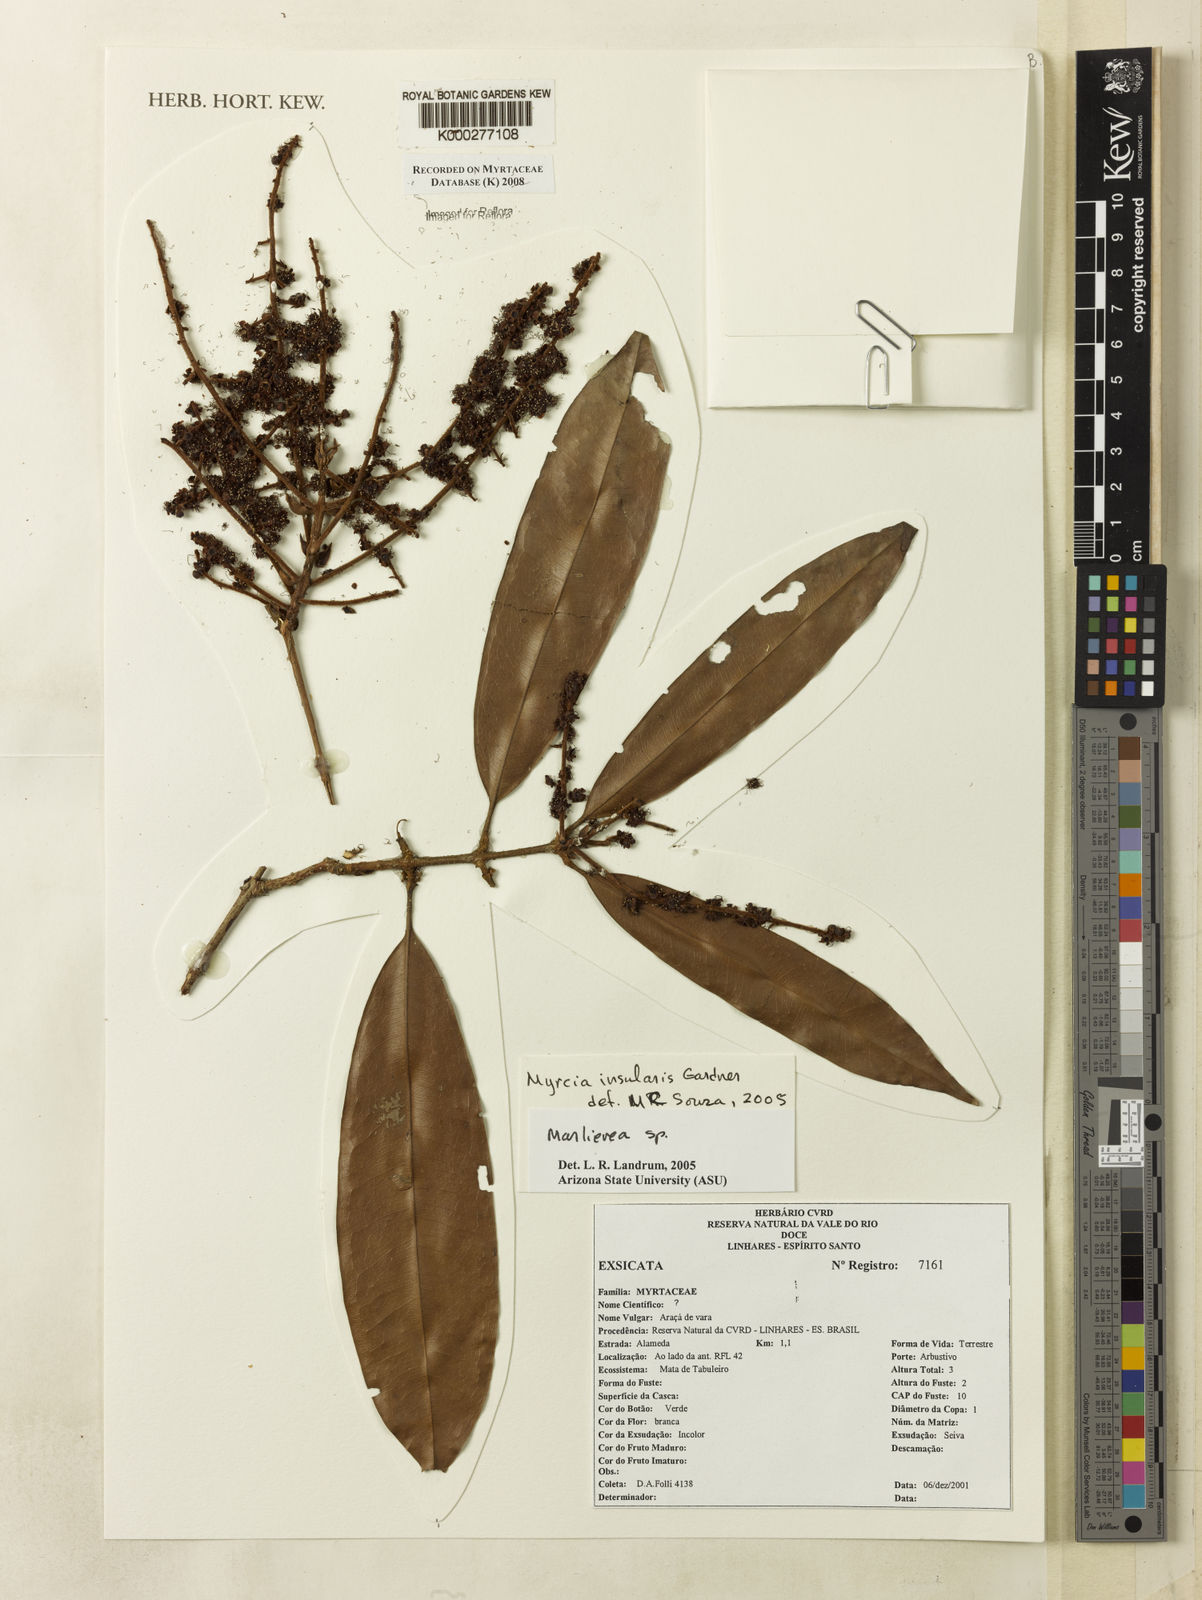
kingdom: Plantae
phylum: Tracheophyta
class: Magnoliopsida
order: Myrtales
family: Myrtaceae
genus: Myrcia
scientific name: Myrcia insularis
